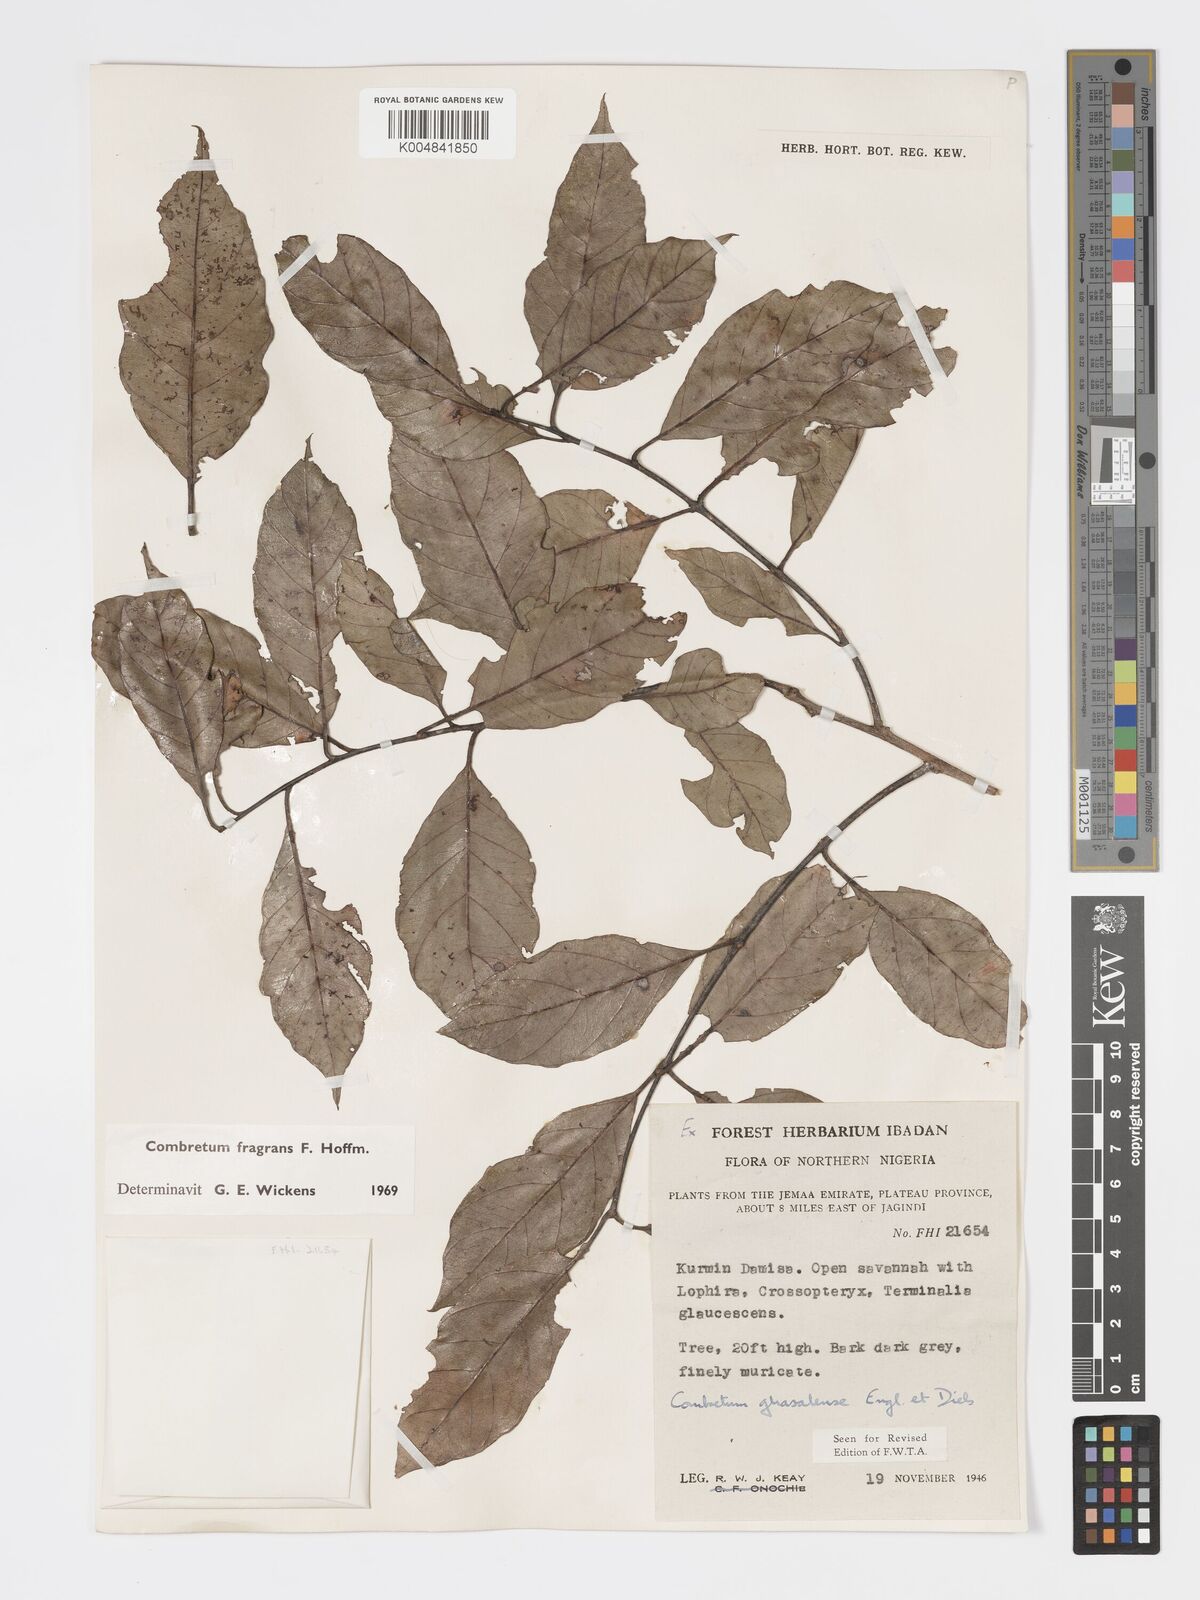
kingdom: Plantae
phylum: Tracheophyta
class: Magnoliopsida
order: Myrtales
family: Combretaceae
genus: Combretum
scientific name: Combretum adenogonium
